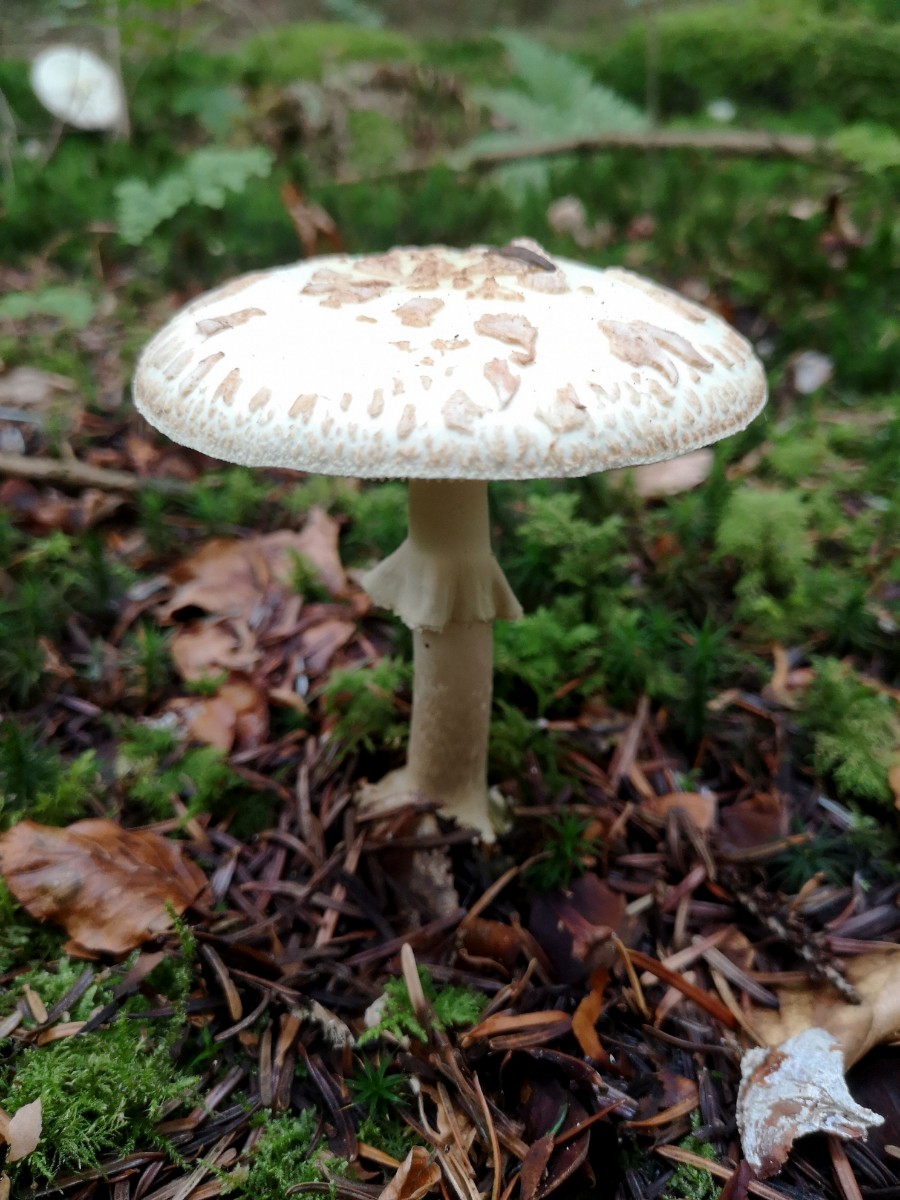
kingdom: Fungi
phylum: Basidiomycota
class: Agaricomycetes
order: Agaricales
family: Amanitaceae
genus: Amanita
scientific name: Amanita citrina
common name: kugleknoldet fluesvamp
